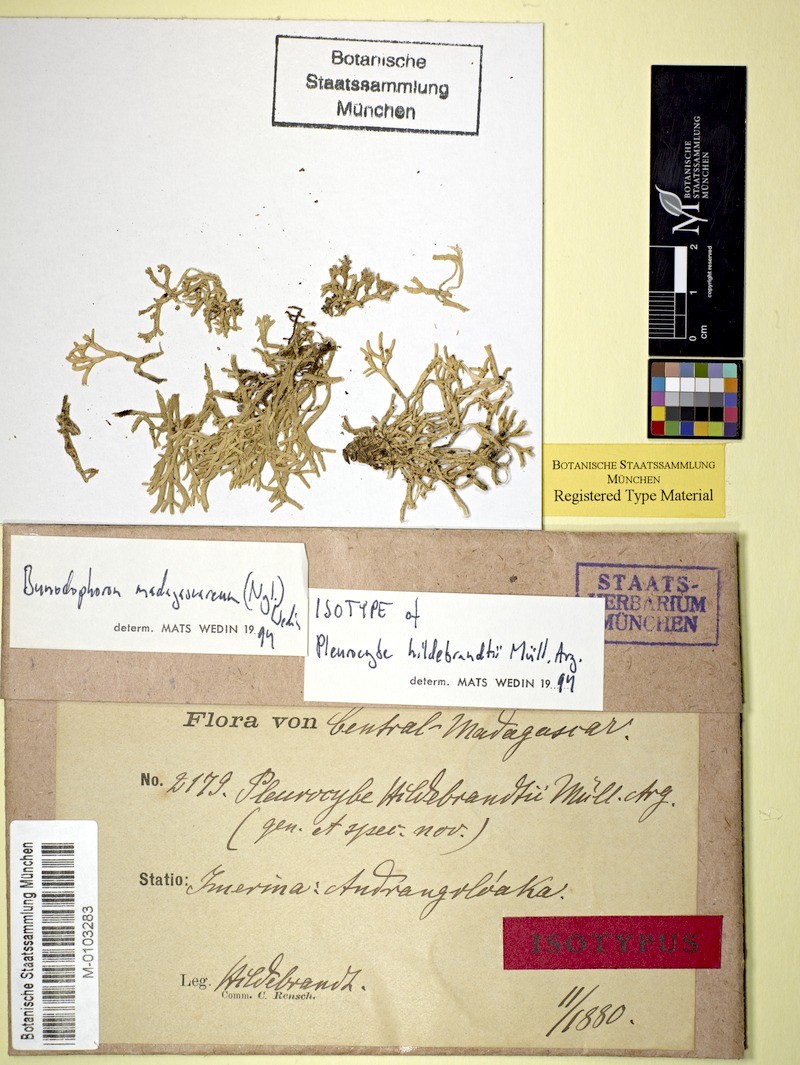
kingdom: Fungi
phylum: Ascomycota
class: Lecanoromycetes
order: Lecanorales
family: Sphaerophoraceae
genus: Bunodophoron
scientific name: Bunodophoron madagascareum
